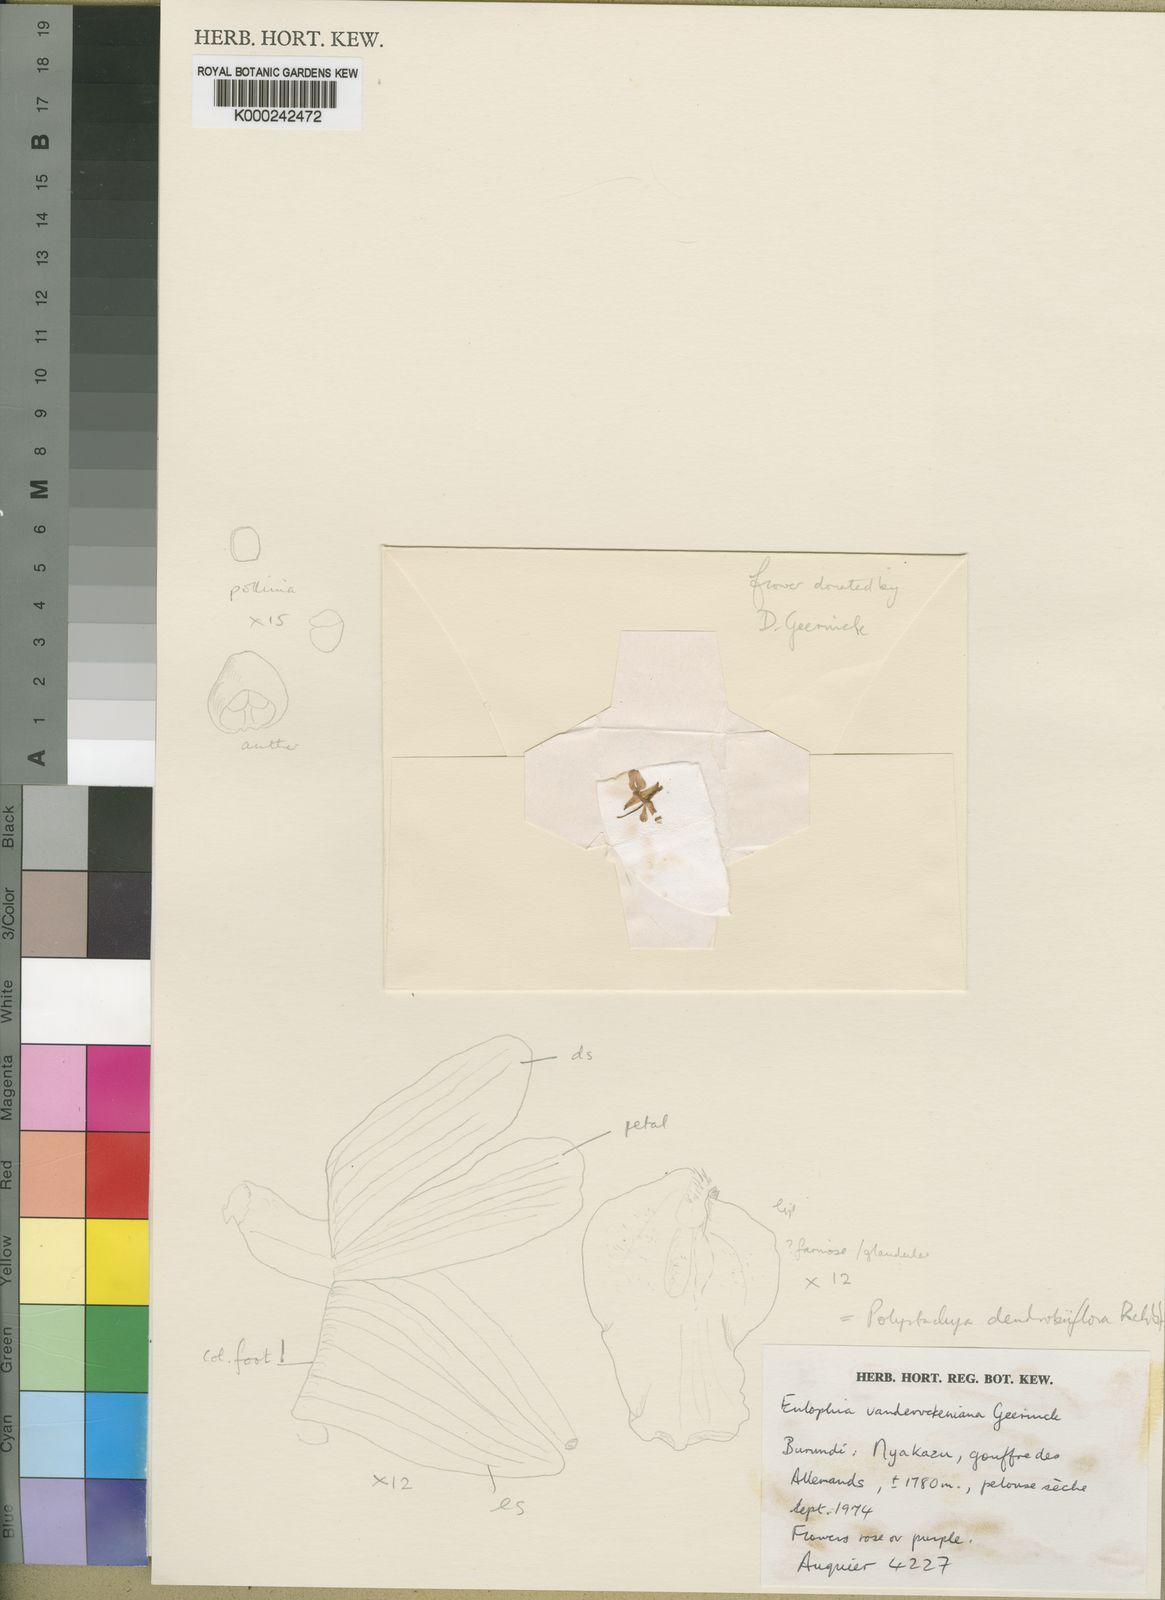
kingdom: Plantae
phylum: Tracheophyta
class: Liliopsida
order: Asparagales
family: Orchidaceae
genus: Polystachya
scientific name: Polystachya longiscapa
